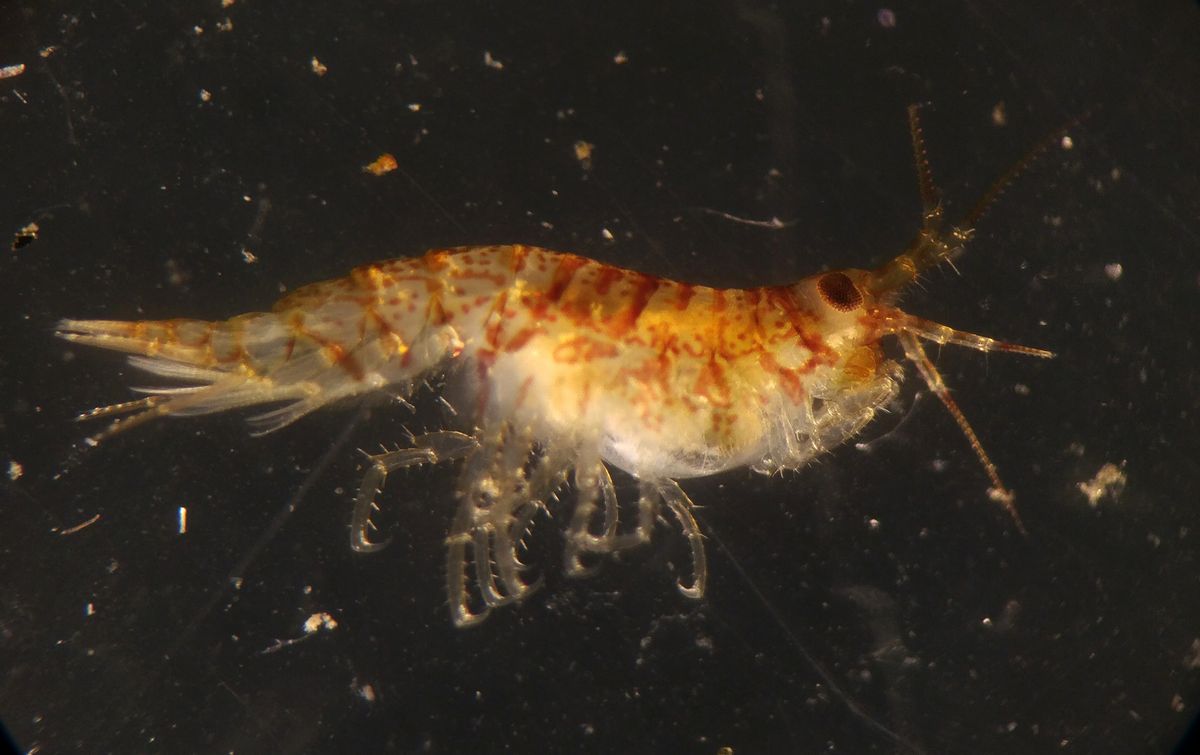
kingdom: Animalia
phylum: Arthropoda
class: Malacostraca
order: Amphipoda
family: Calliopiidae
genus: Calliopius
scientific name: Calliopius laeviusculus
